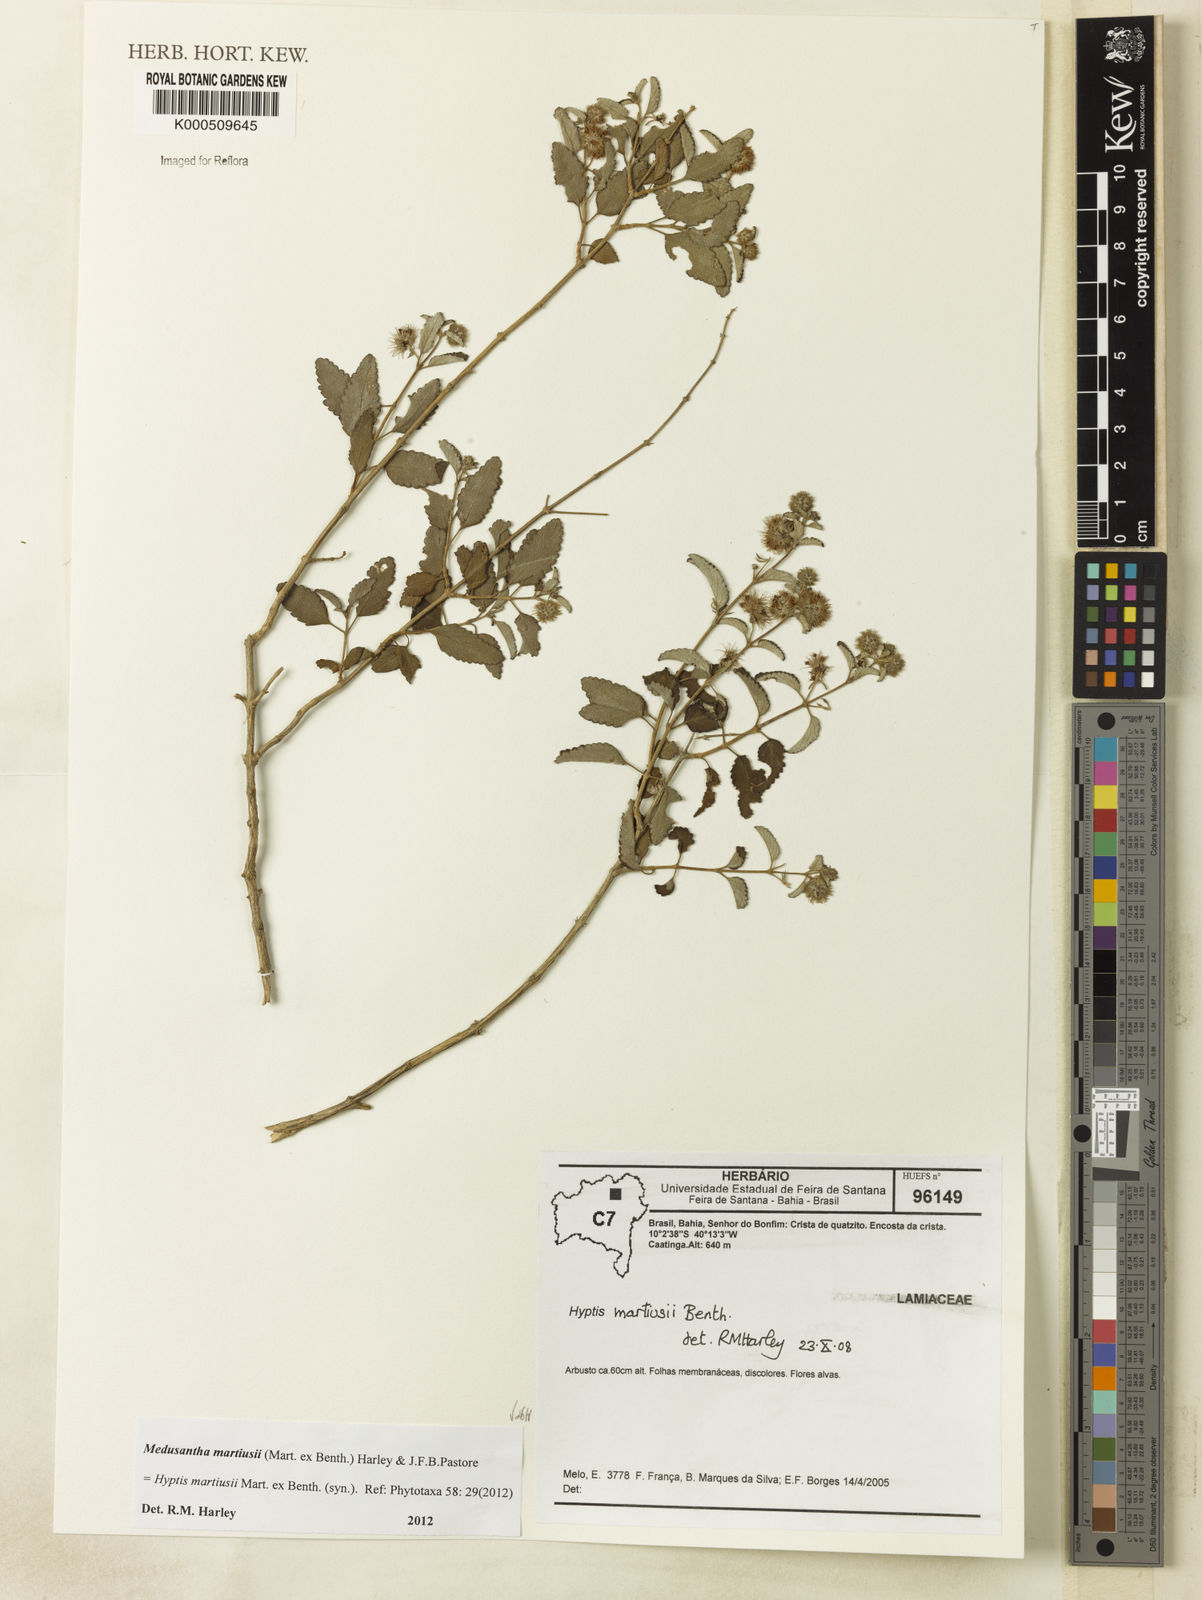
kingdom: Plantae
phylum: Tracheophyta
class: Magnoliopsida
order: Lamiales
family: Lamiaceae
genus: Medusantha
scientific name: Medusantha martiusii
